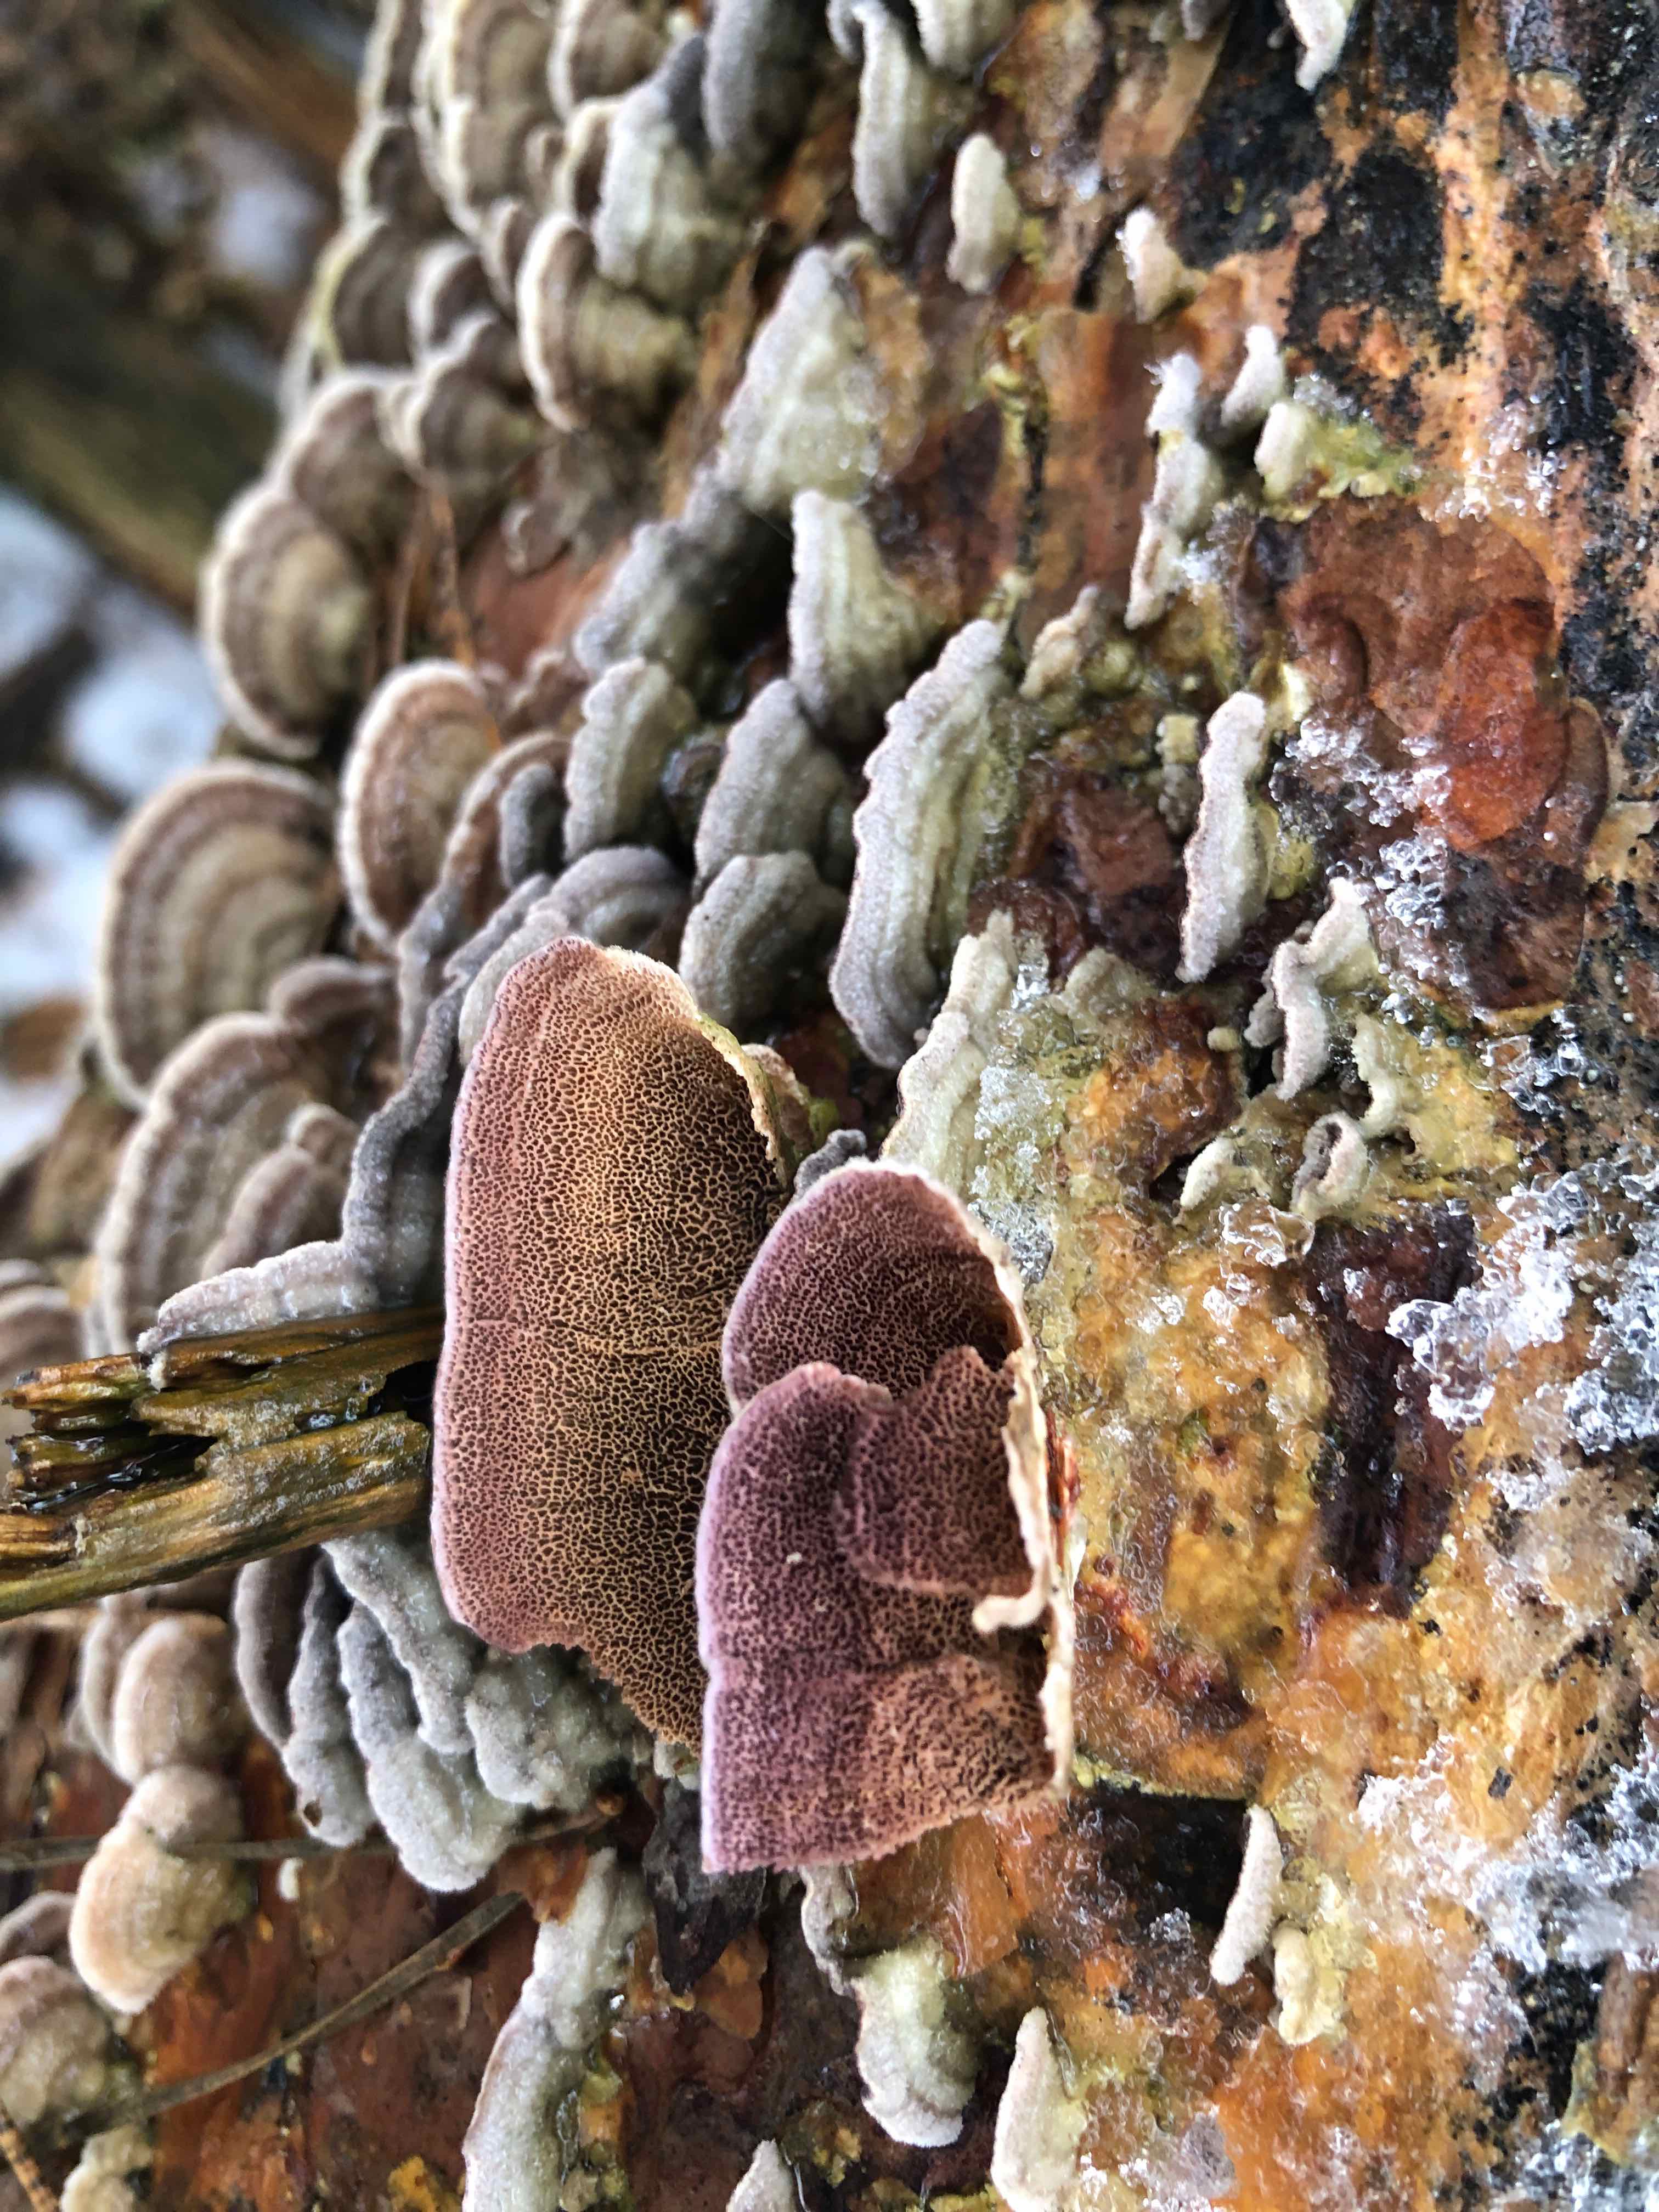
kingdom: Fungi
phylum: Basidiomycota
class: Agaricomycetes
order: Hymenochaetales
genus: Trichaptum
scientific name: Trichaptum abietinum
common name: almindelig violporesvamp
